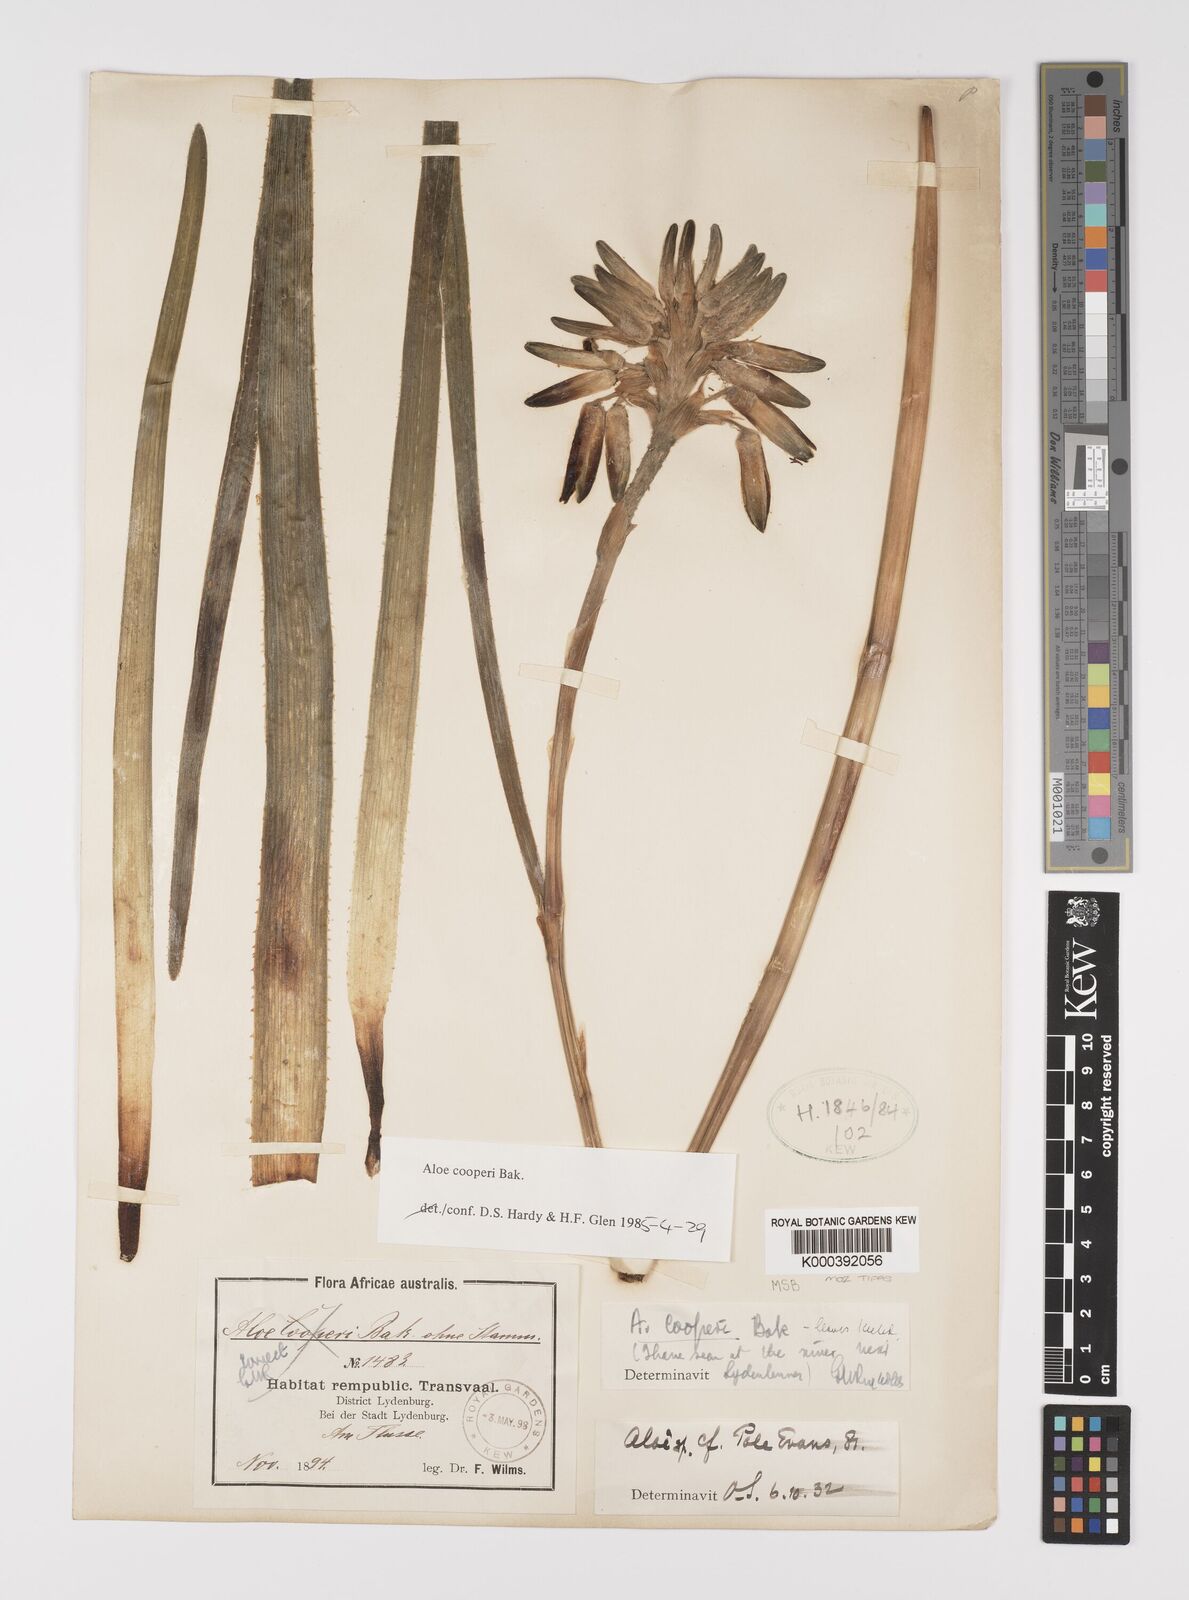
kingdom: Plantae
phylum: Tracheophyta
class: Liliopsida
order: Asparagales
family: Asphodelaceae
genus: Aloe
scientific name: Aloe cooperi
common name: Cooper's aloe
